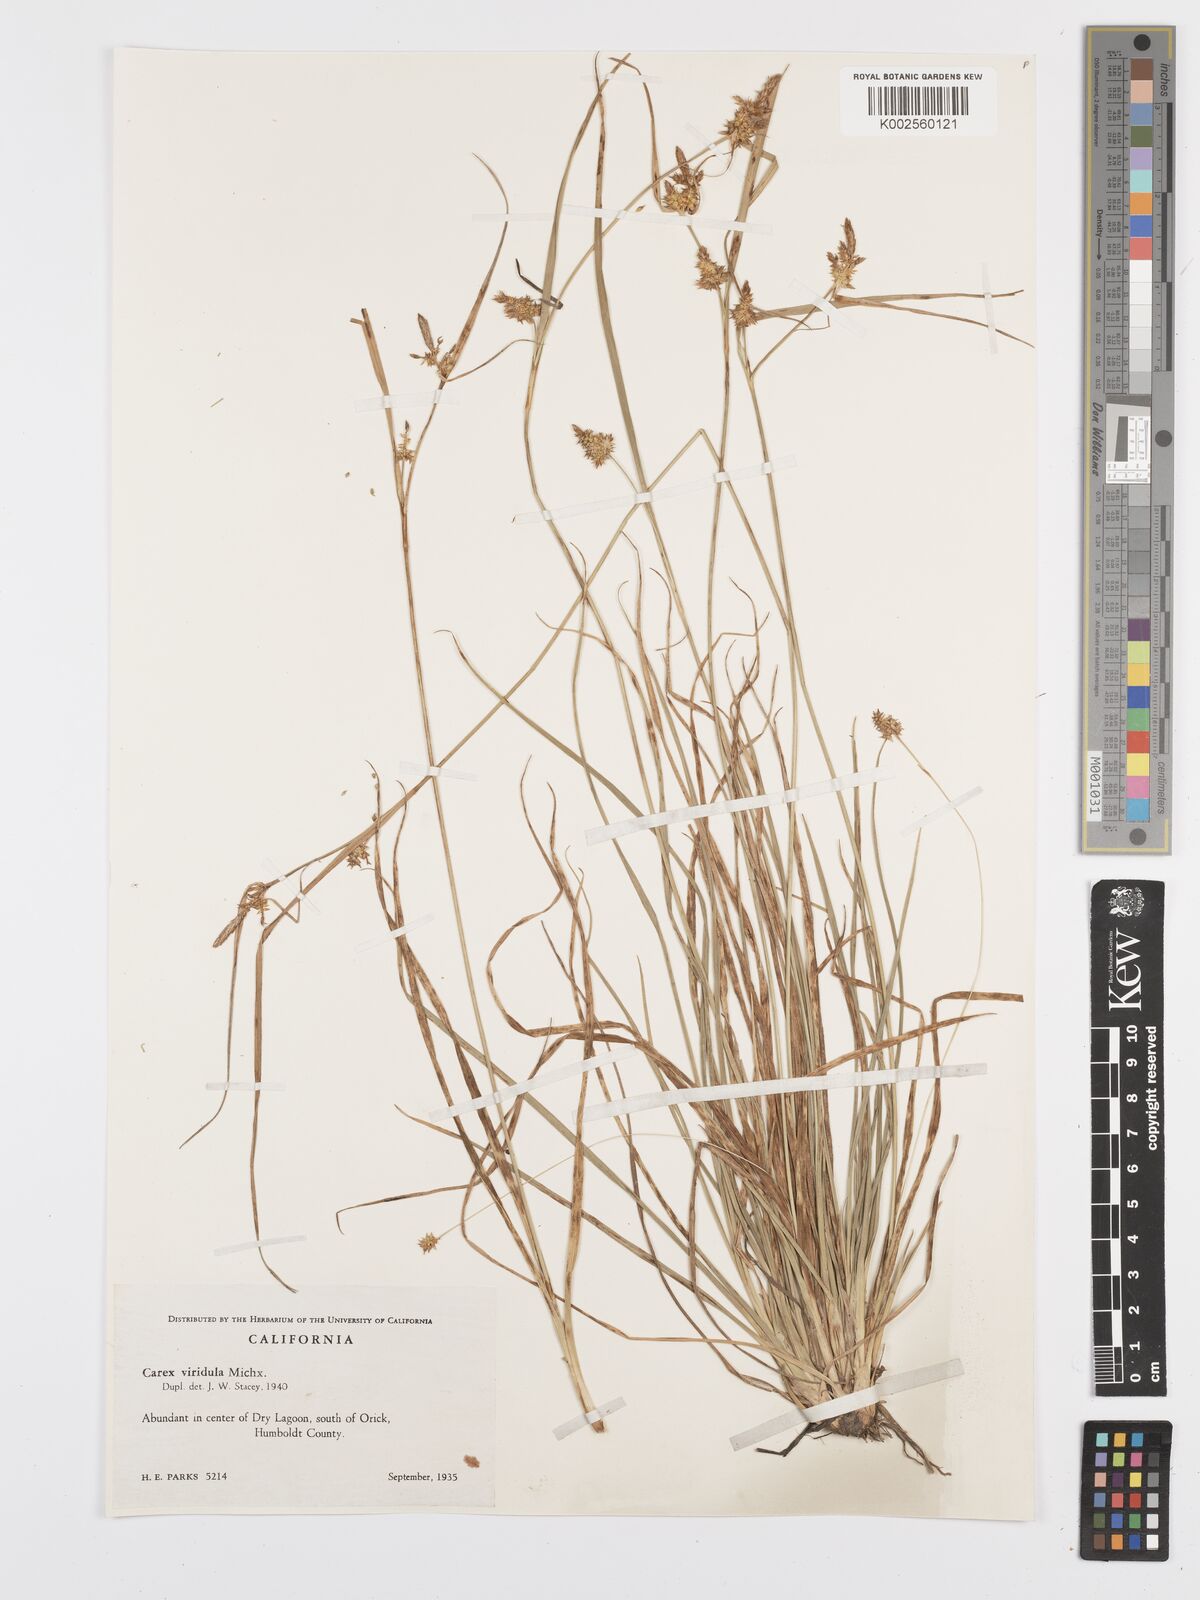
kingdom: Plantae
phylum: Tracheophyta
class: Liliopsida
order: Poales
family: Cyperaceae
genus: Carex
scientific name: Carex oederi
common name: Common & small-fruited yellow-sedge
